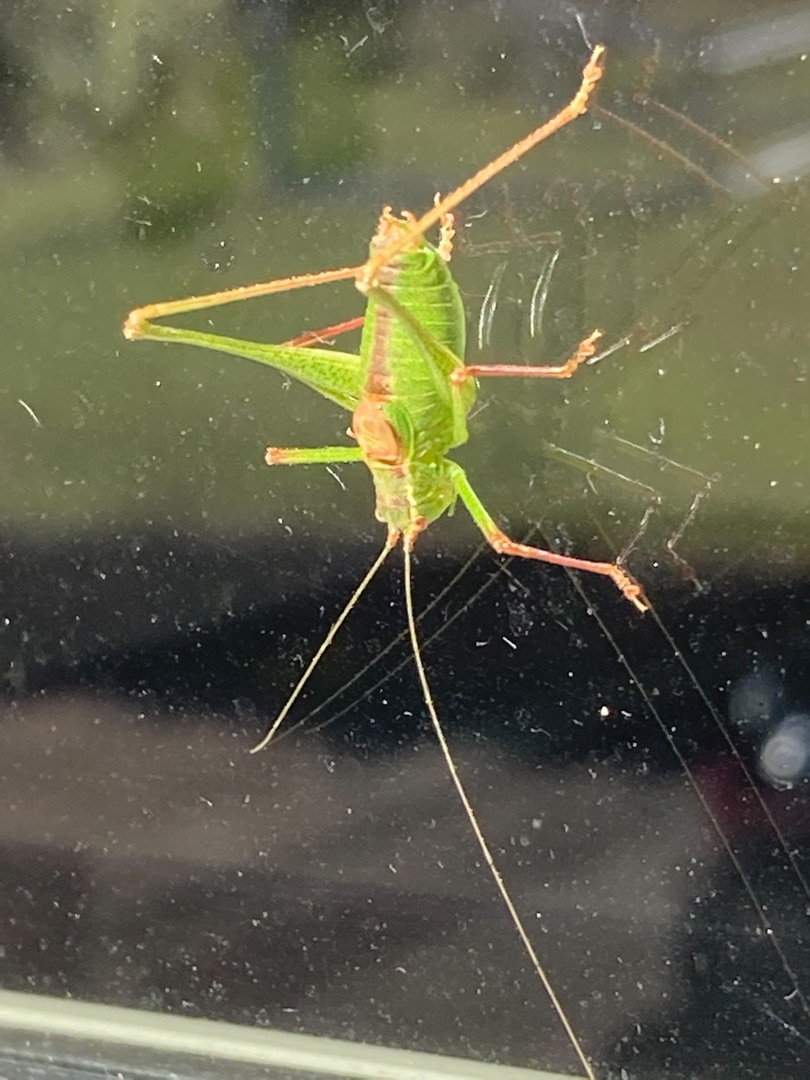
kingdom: Animalia
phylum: Arthropoda
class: Insecta
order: Orthoptera
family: Tettigoniidae
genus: Leptophyes
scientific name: Leptophyes punctatissima
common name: Krumknivgræshoppe
